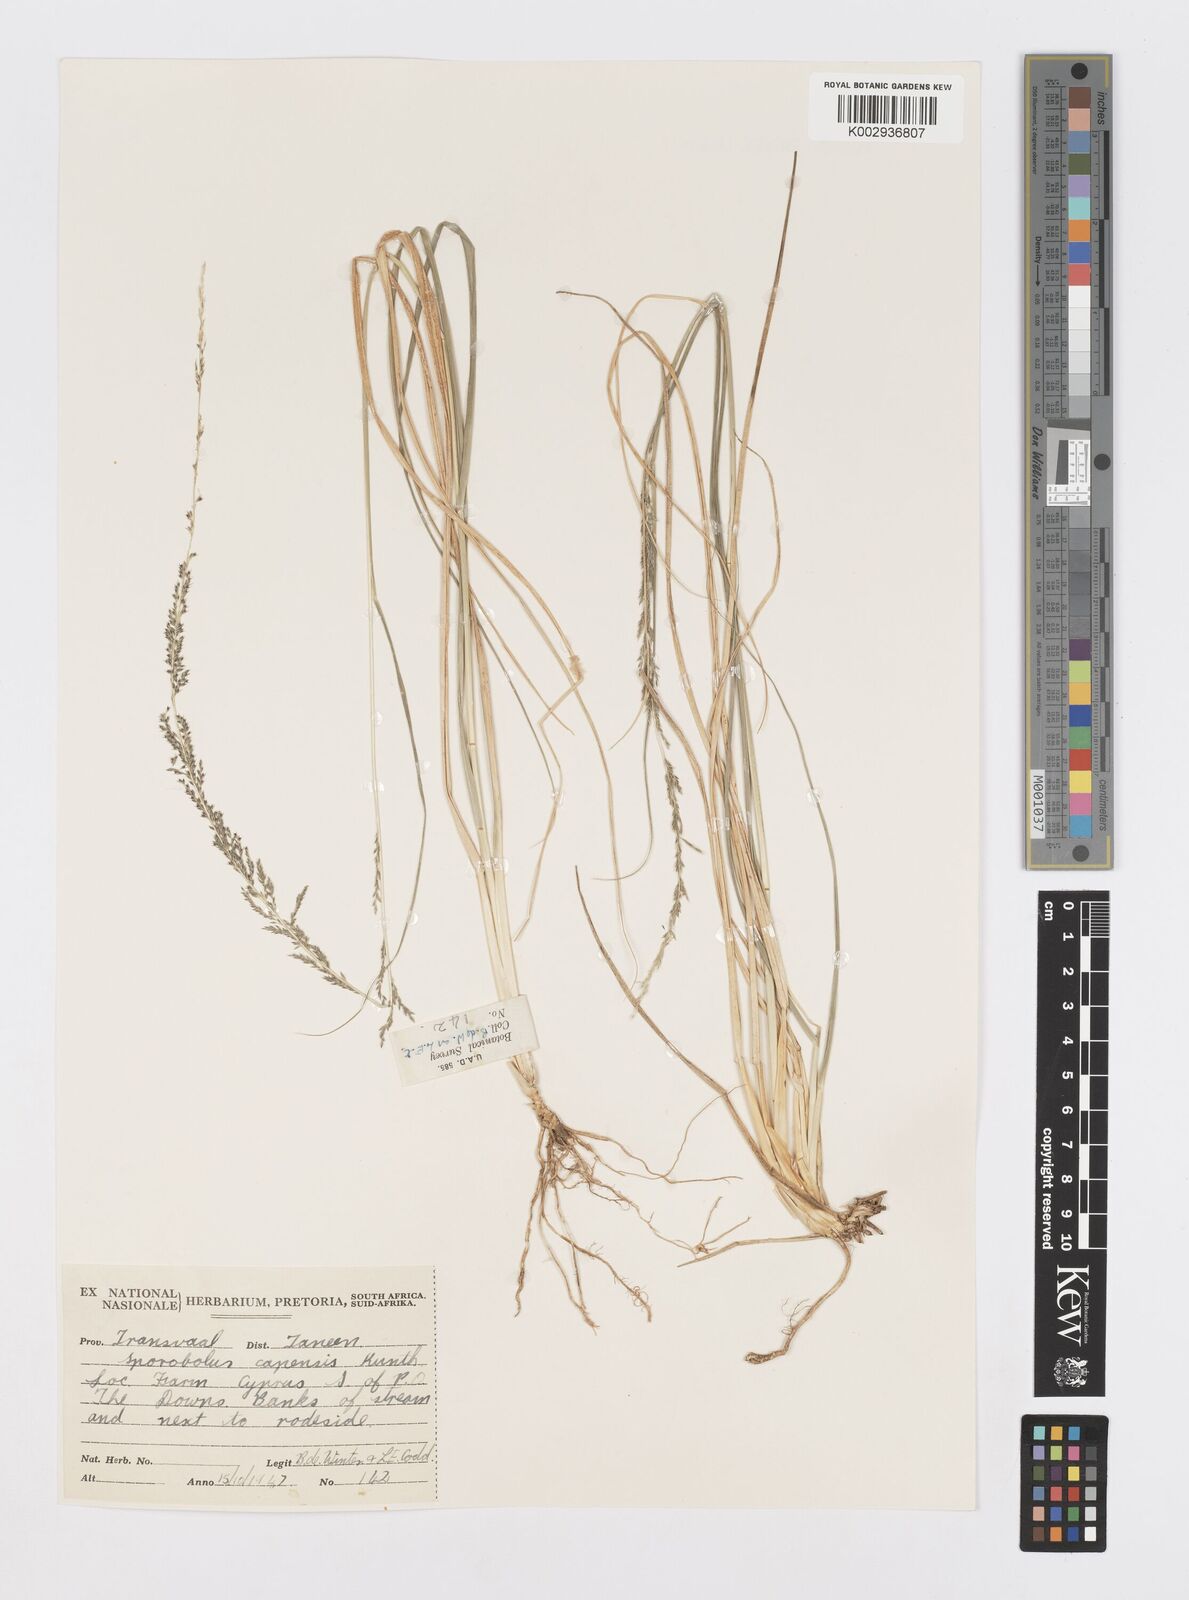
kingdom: Plantae
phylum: Tracheophyta
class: Liliopsida
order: Poales
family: Poaceae
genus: Sporobolus
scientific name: Sporobolus africanus
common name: African dropseed
